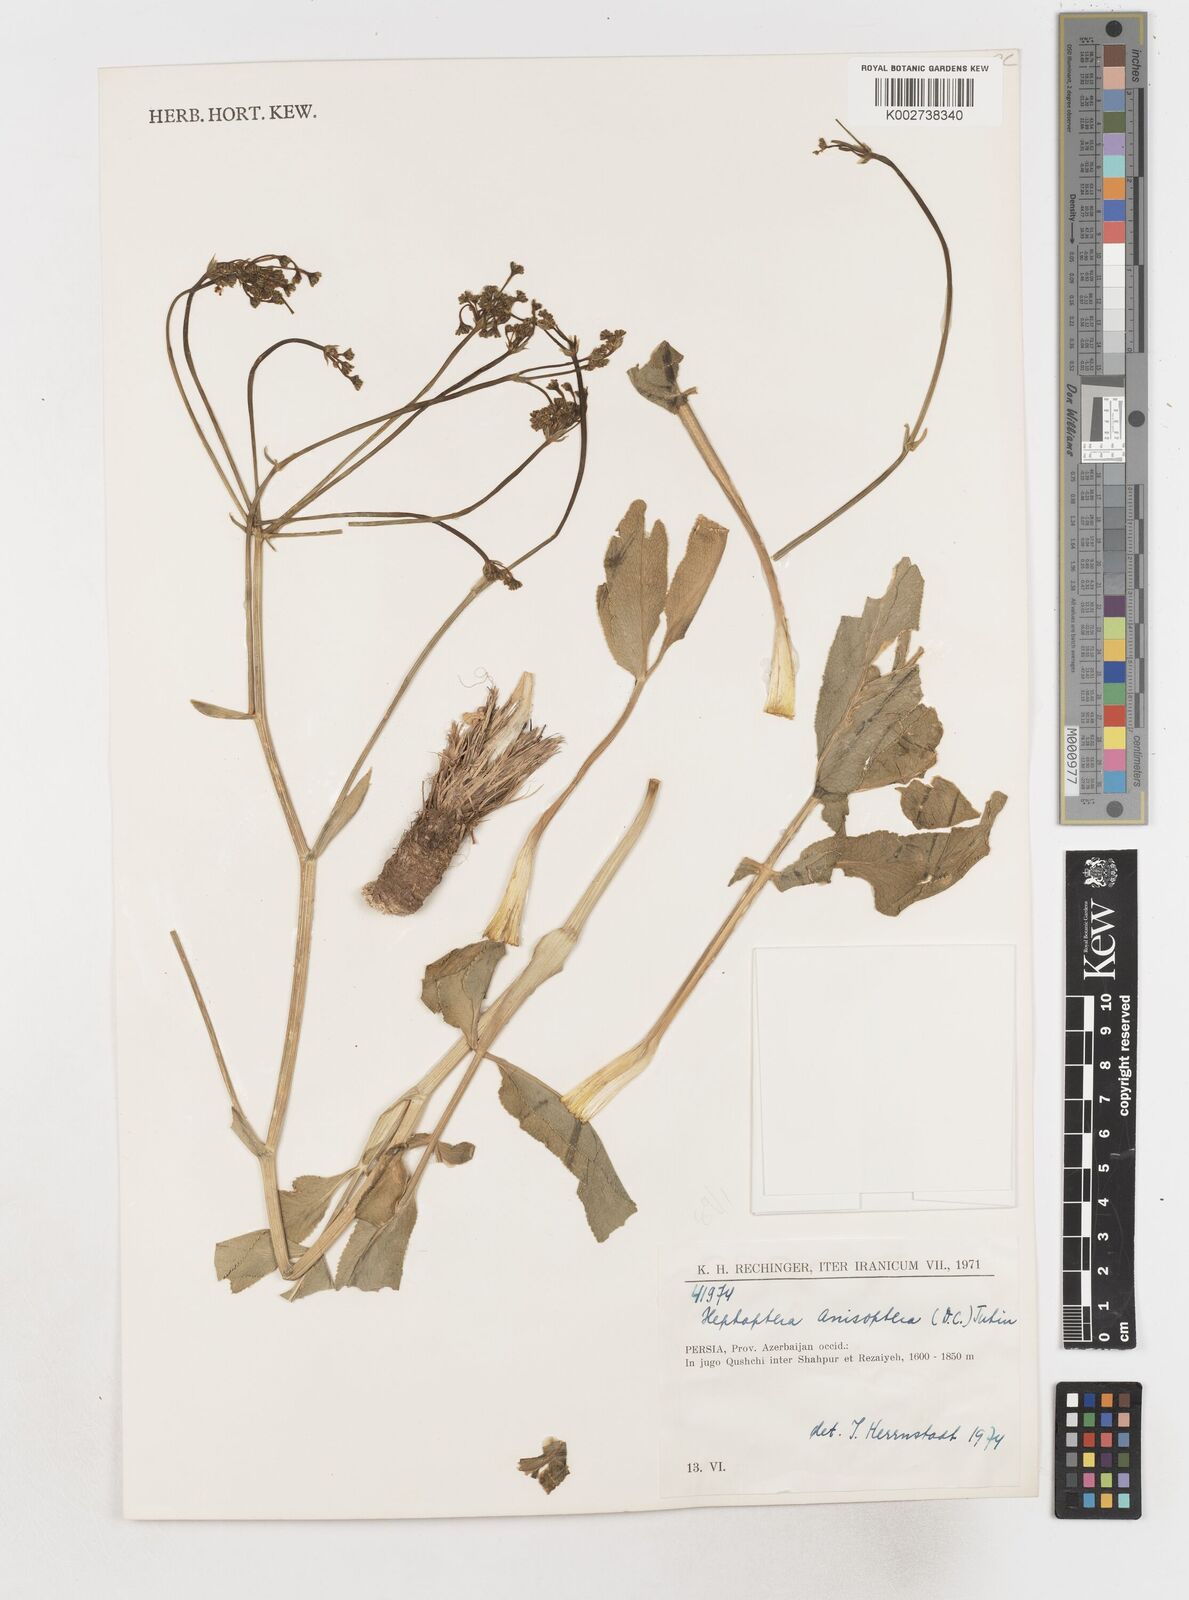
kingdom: Plantae
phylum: Tracheophyta
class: Magnoliopsida
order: Apiales
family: Apiaceae
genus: Heptaptera
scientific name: Heptaptera
